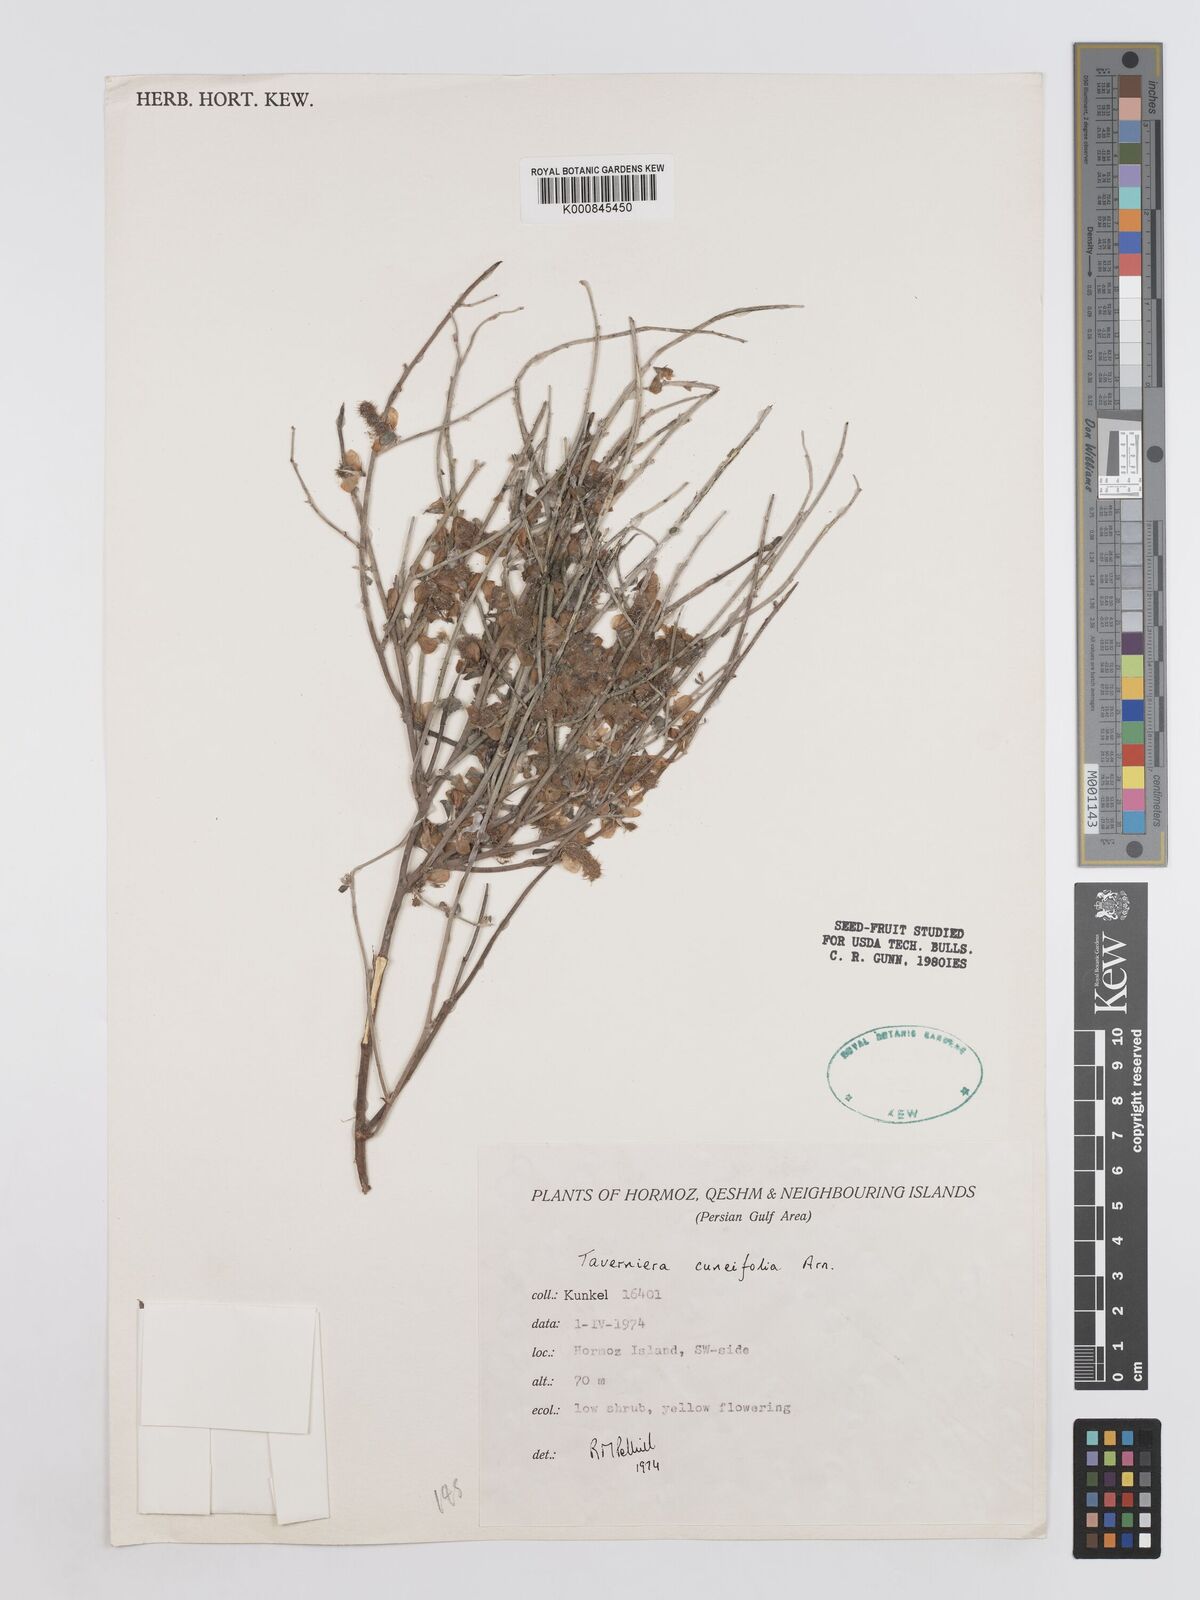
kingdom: Plantae
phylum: Tracheophyta
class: Magnoliopsida
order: Fabales
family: Fabaceae
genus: Taverniera
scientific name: Taverniera
